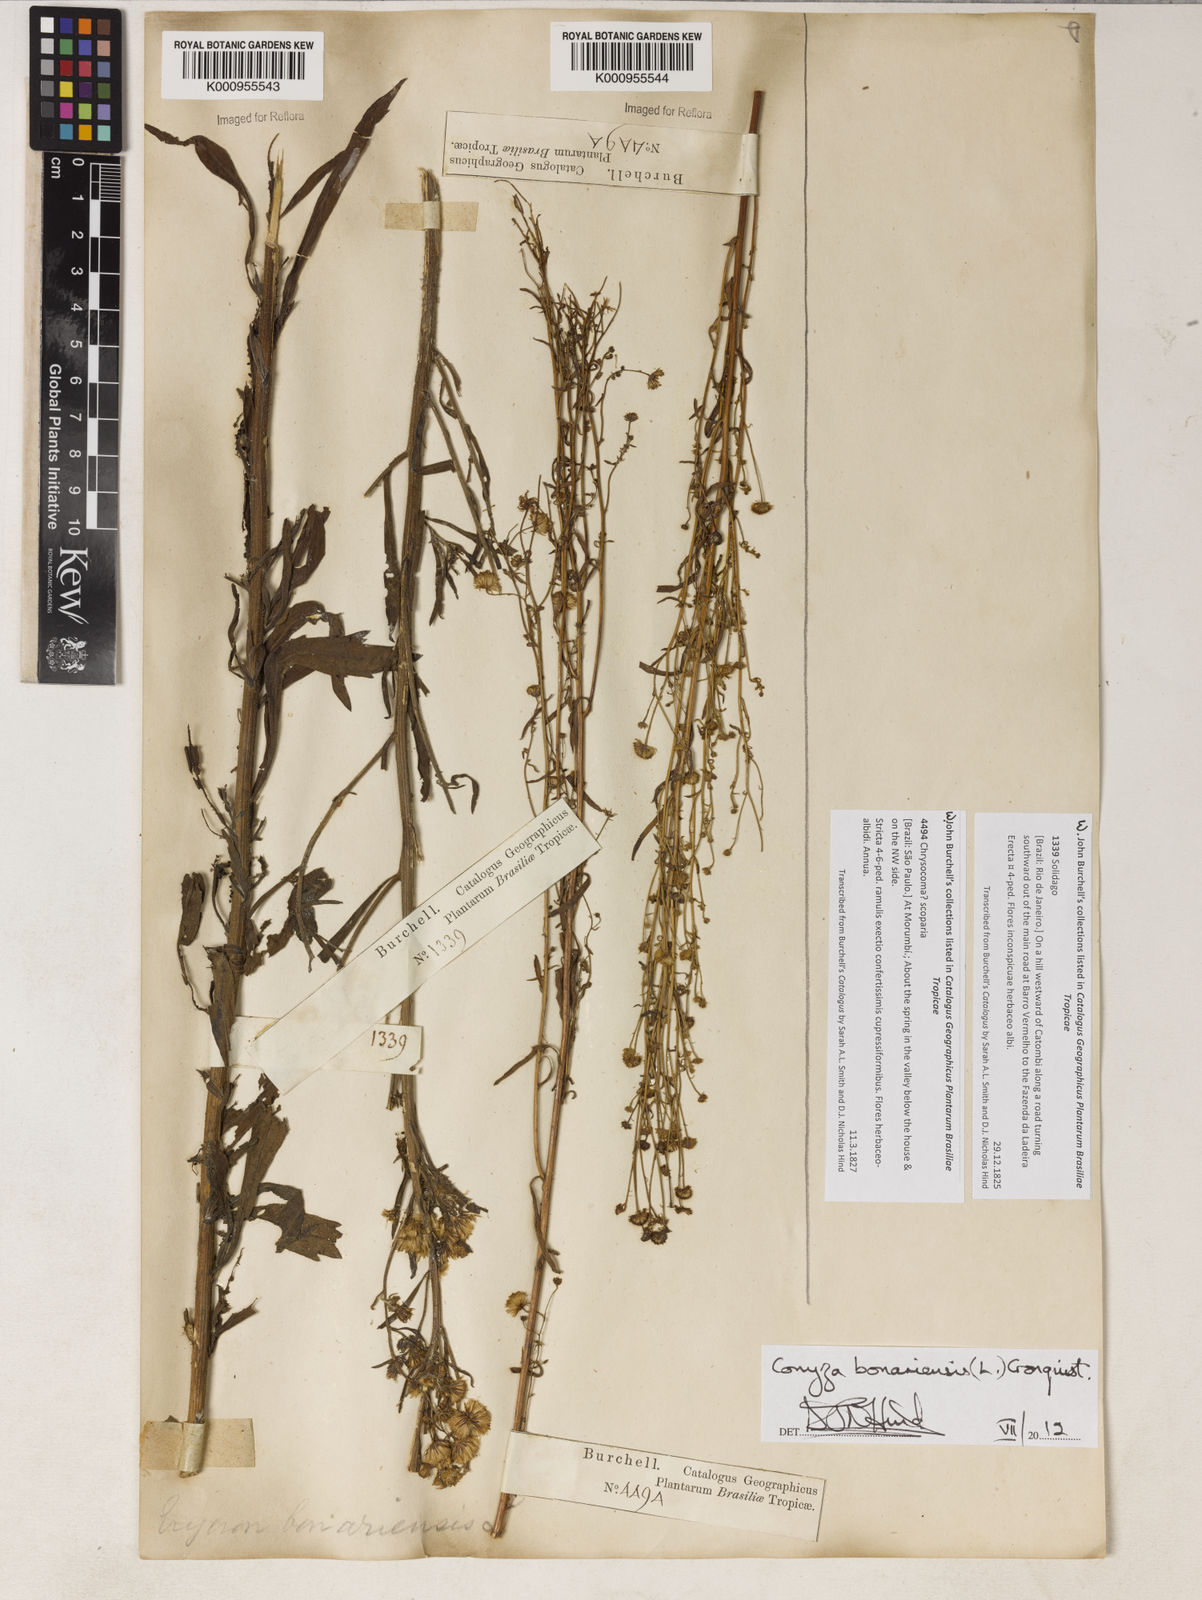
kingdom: Plantae
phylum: Tracheophyta
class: Magnoliopsida
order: Asterales
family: Asteraceae
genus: Erigeron
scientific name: Erigeron bonariensis
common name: Argentine fleabane
